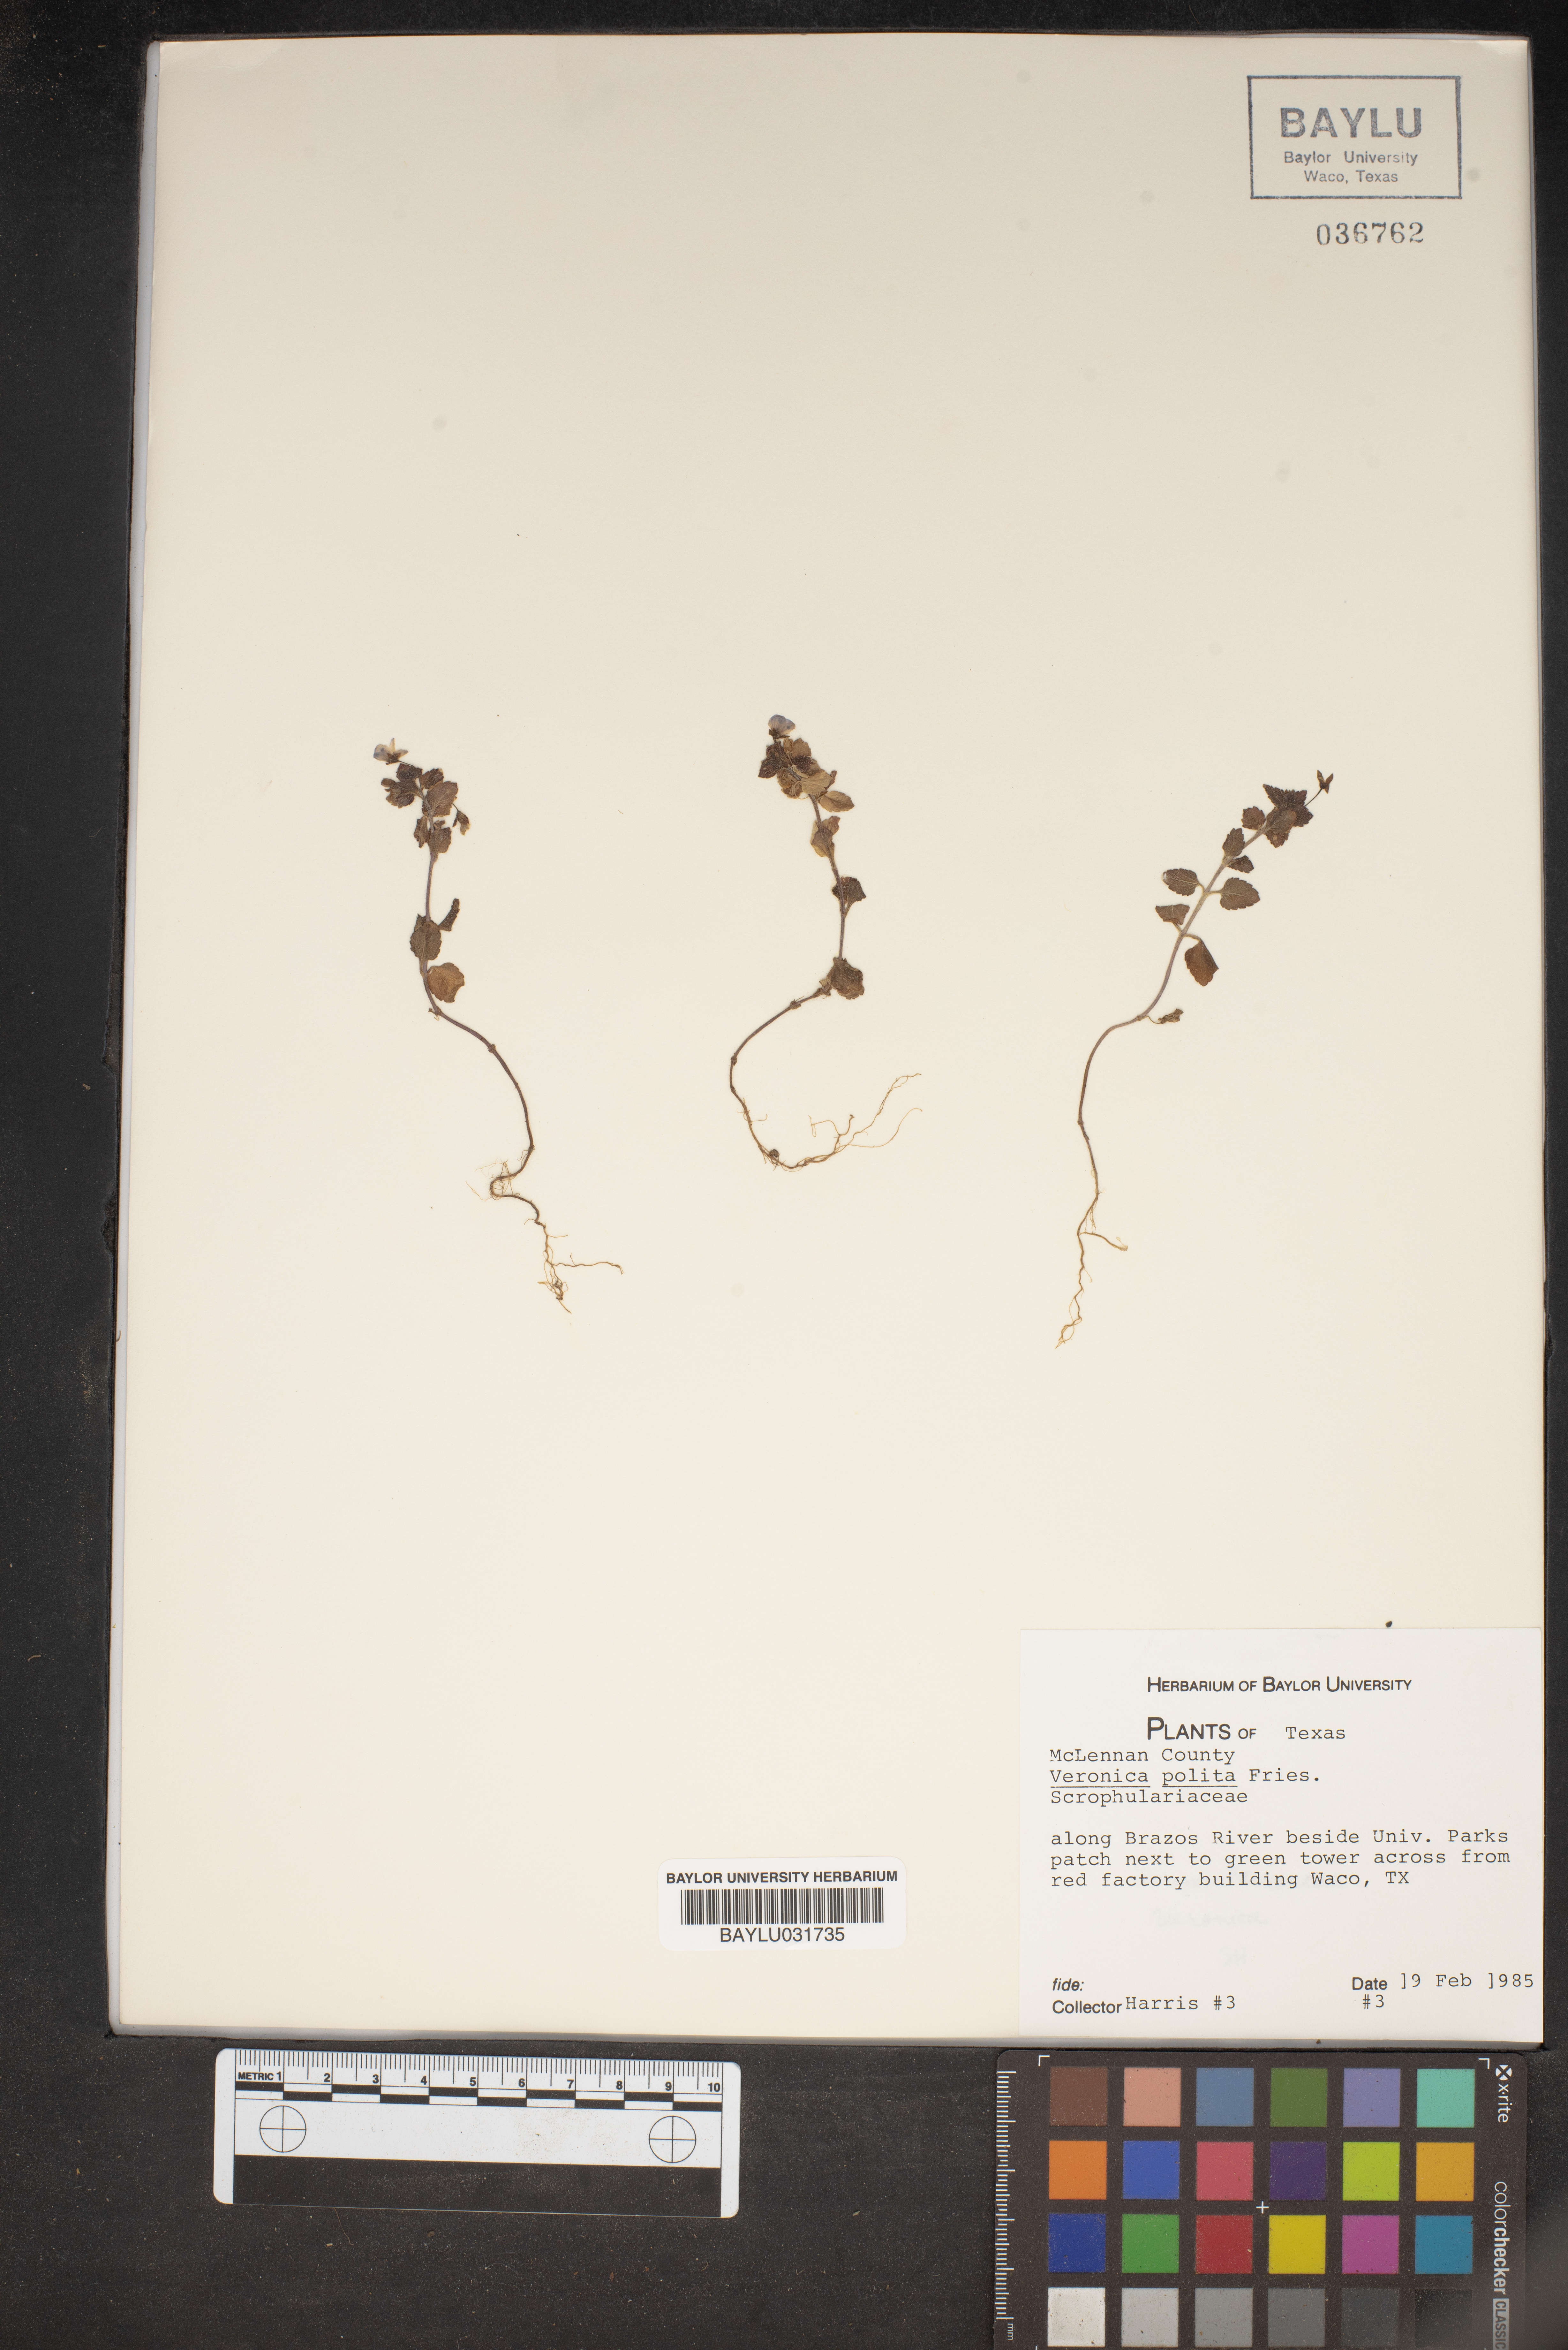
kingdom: Plantae
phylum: Tracheophyta
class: Magnoliopsida
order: Lamiales
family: Plantaginaceae
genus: Veronica
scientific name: Veronica polita
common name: Grey field-speedwell
